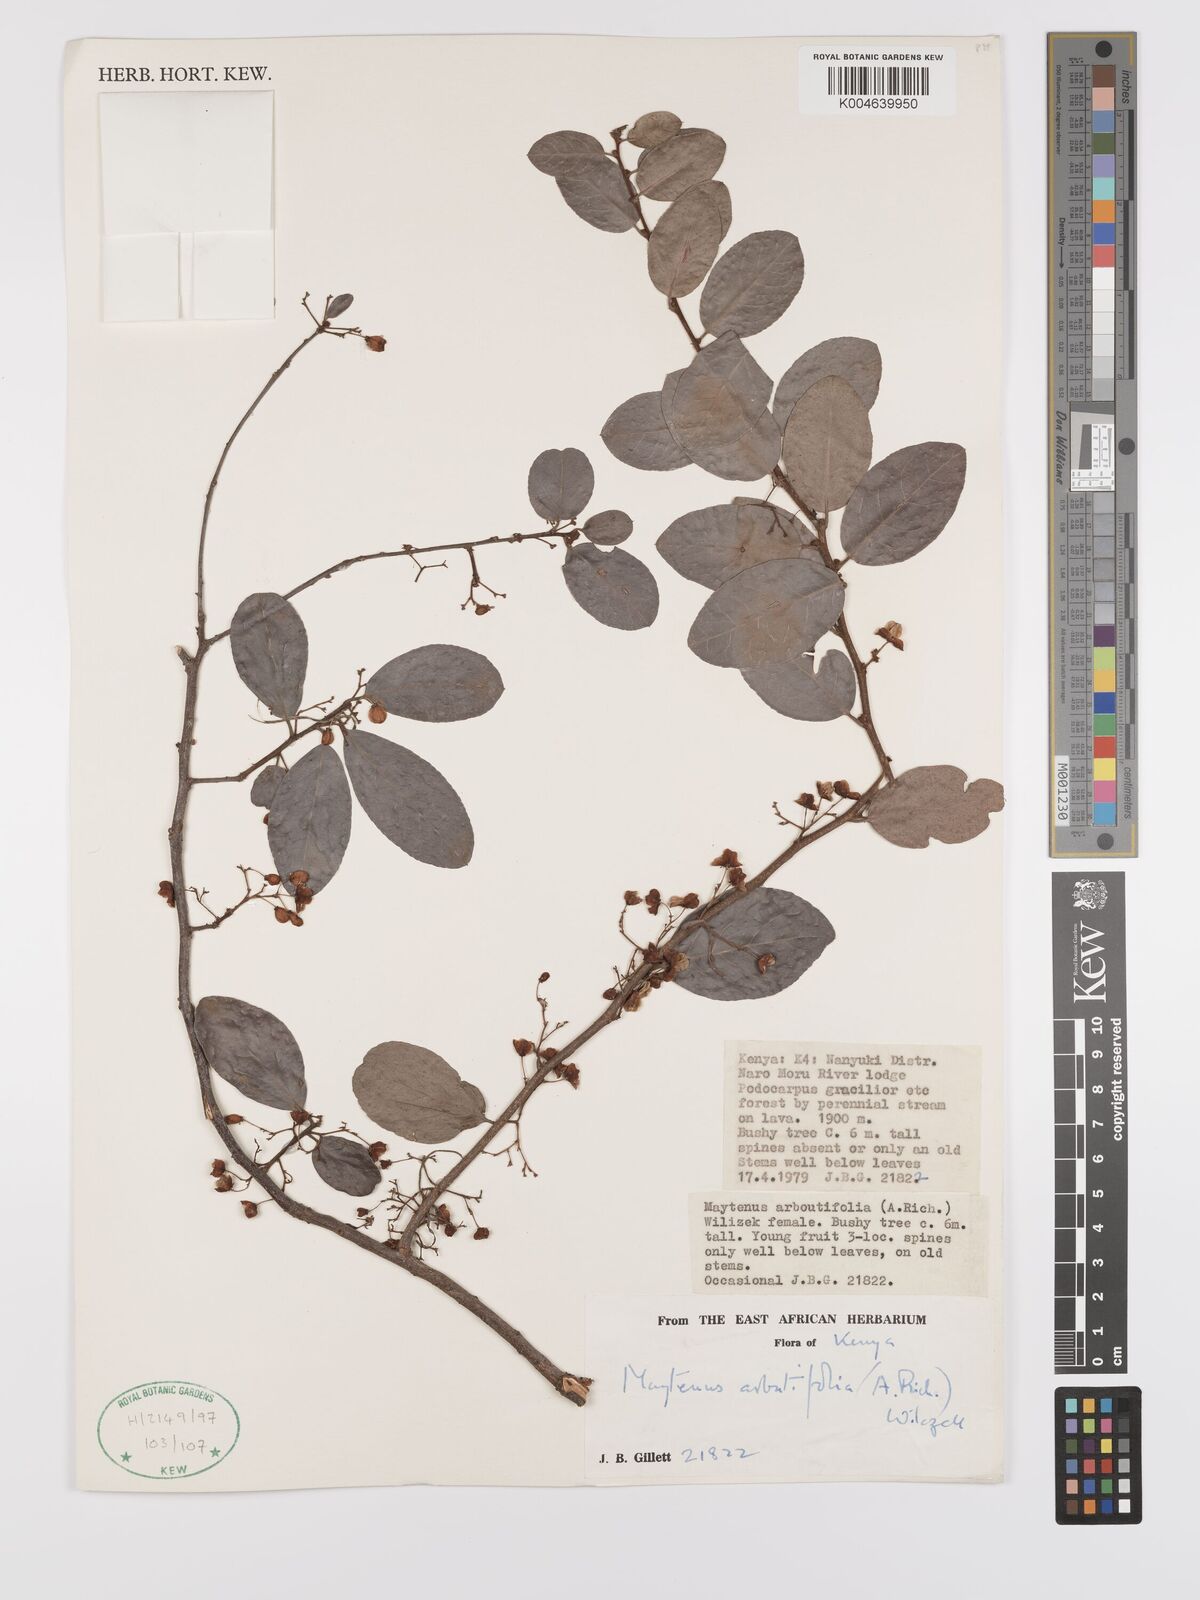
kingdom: Plantae
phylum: Tracheophyta
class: Magnoliopsida
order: Celastrales
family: Celastraceae
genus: Gymnosporia
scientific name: Gymnosporia arbutifolia
